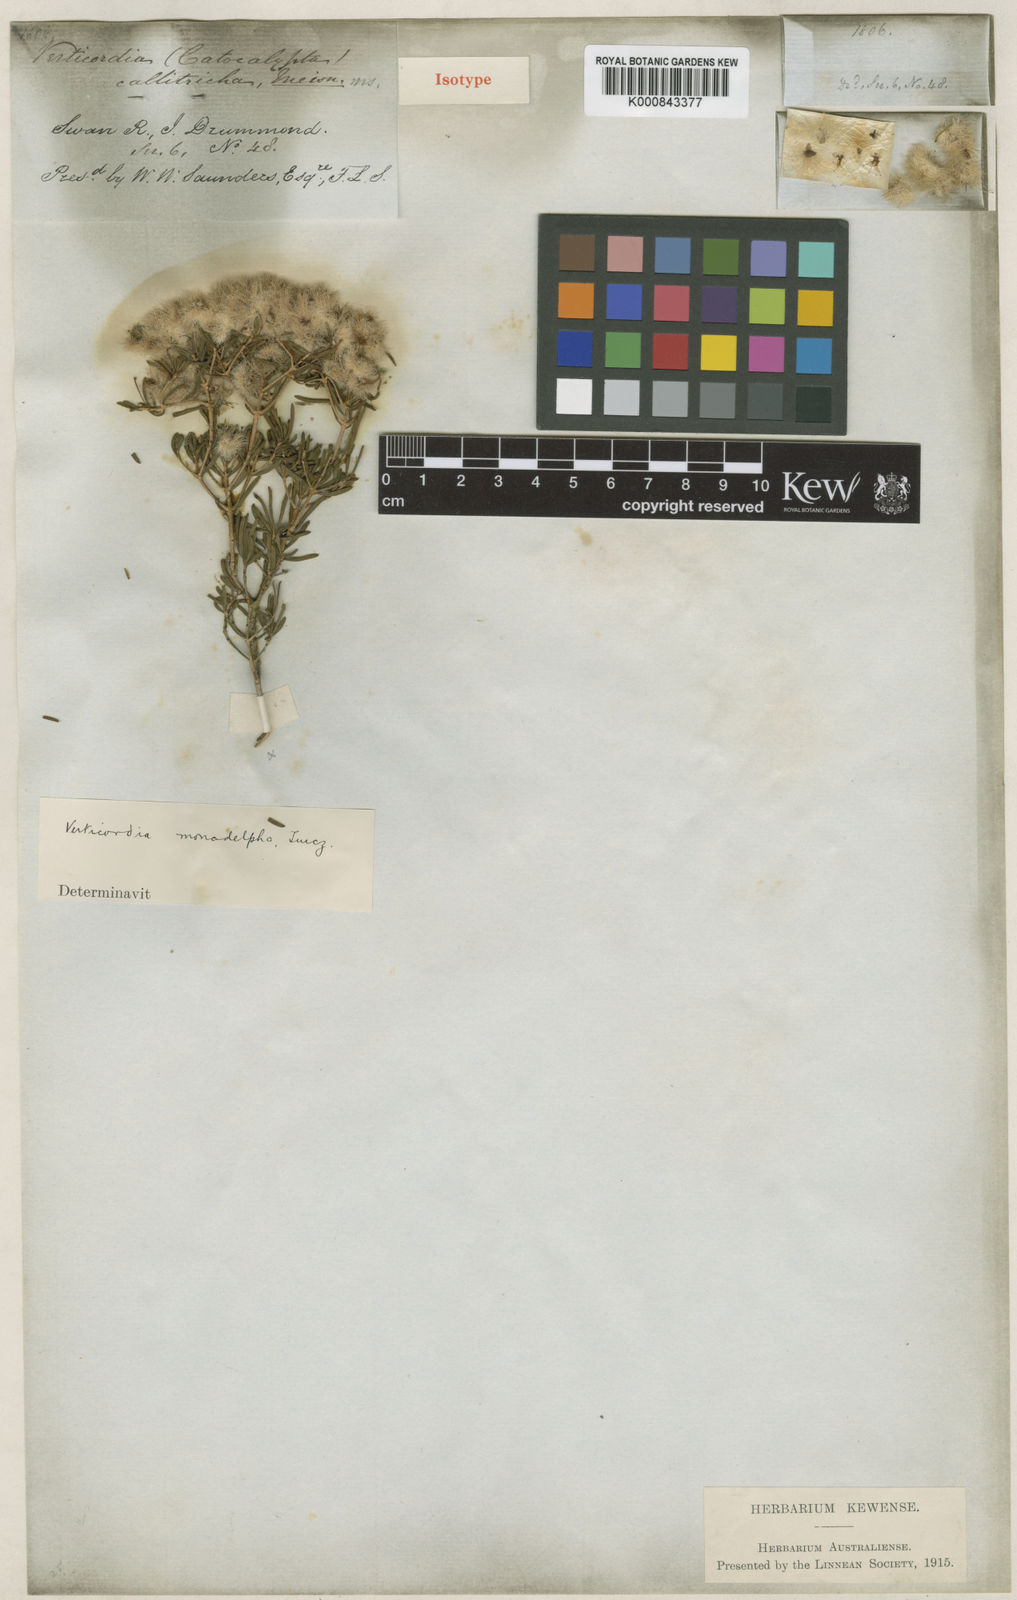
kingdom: Plantae
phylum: Tracheophyta
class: Magnoliopsida
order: Myrtales
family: Myrtaceae
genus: Verticordia
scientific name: Verticordia monadelpha
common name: Woolly feather-flower
